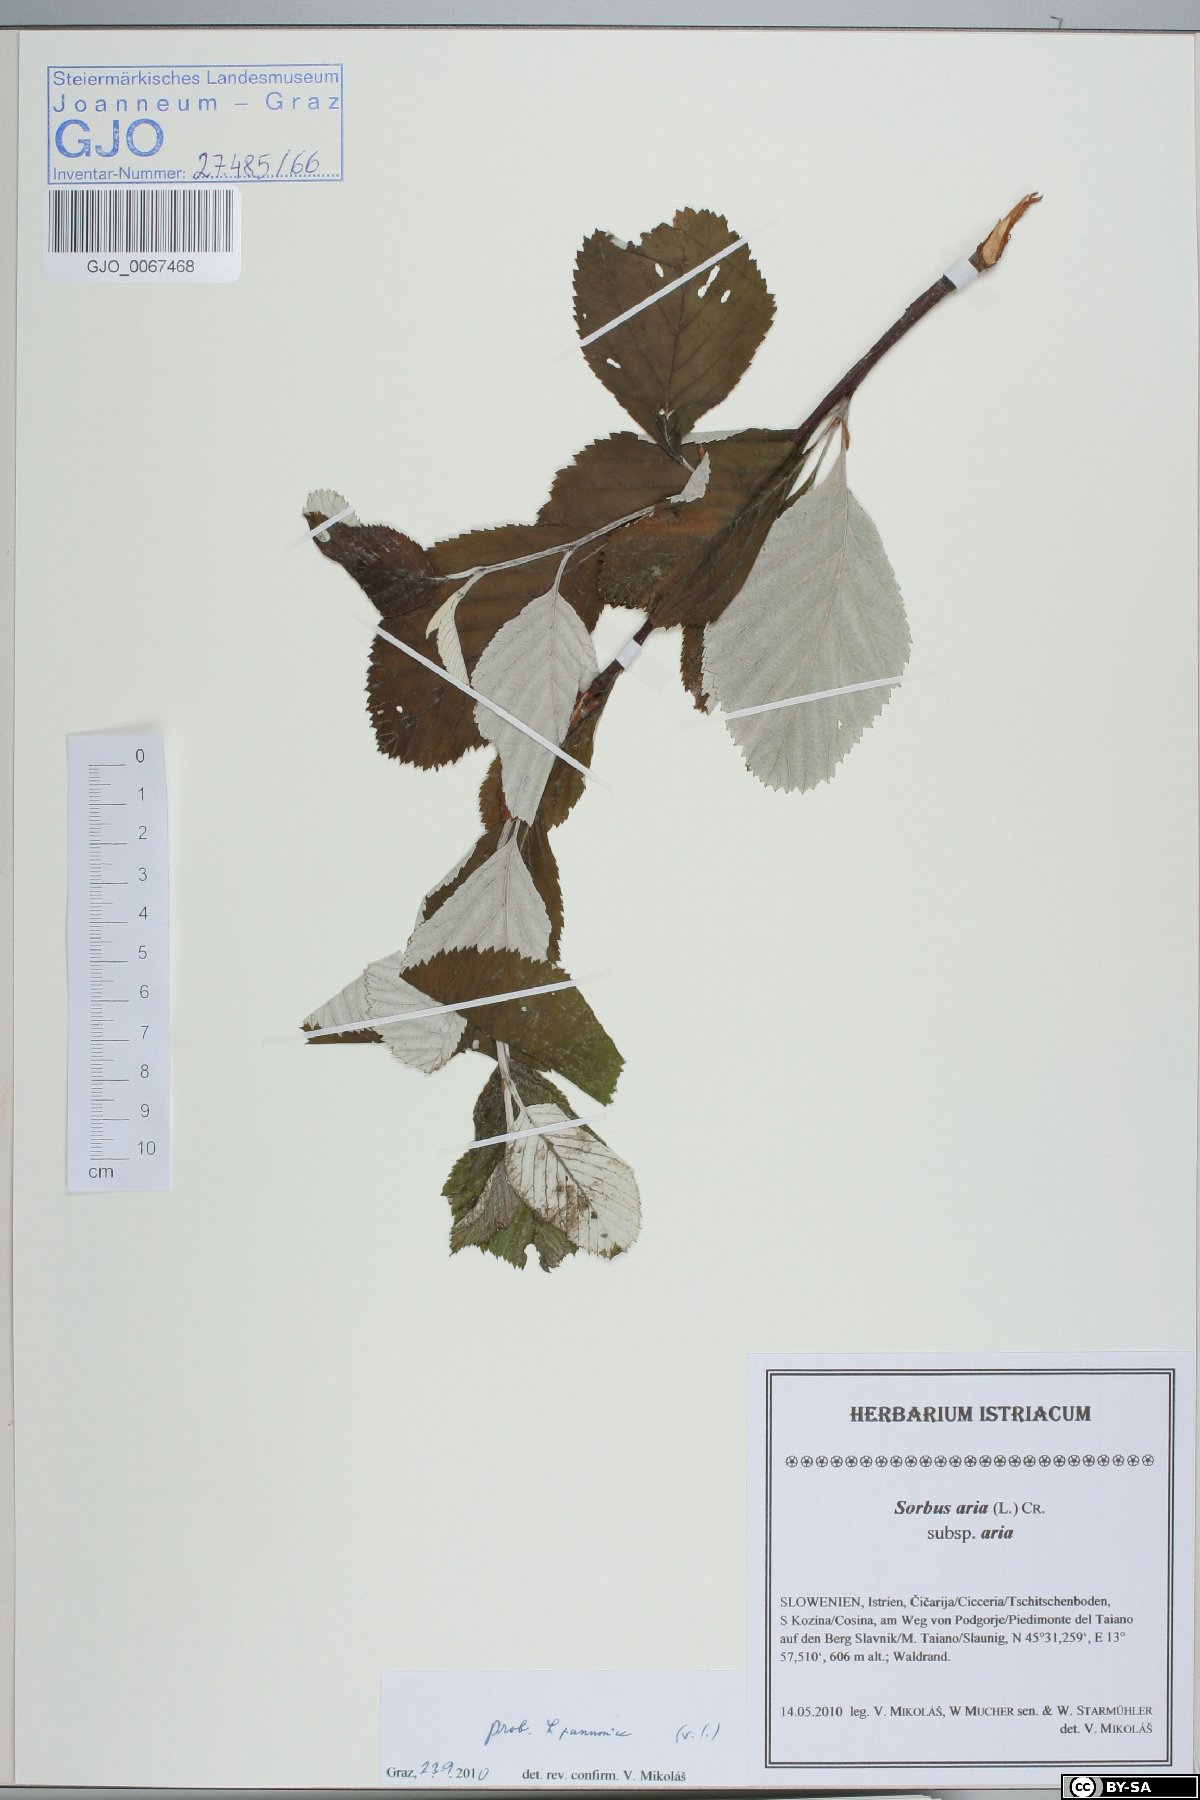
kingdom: Plantae
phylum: Tracheophyta
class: Magnoliopsida
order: Rosales
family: Rosaceae
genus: Aria
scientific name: Aria pannonica
